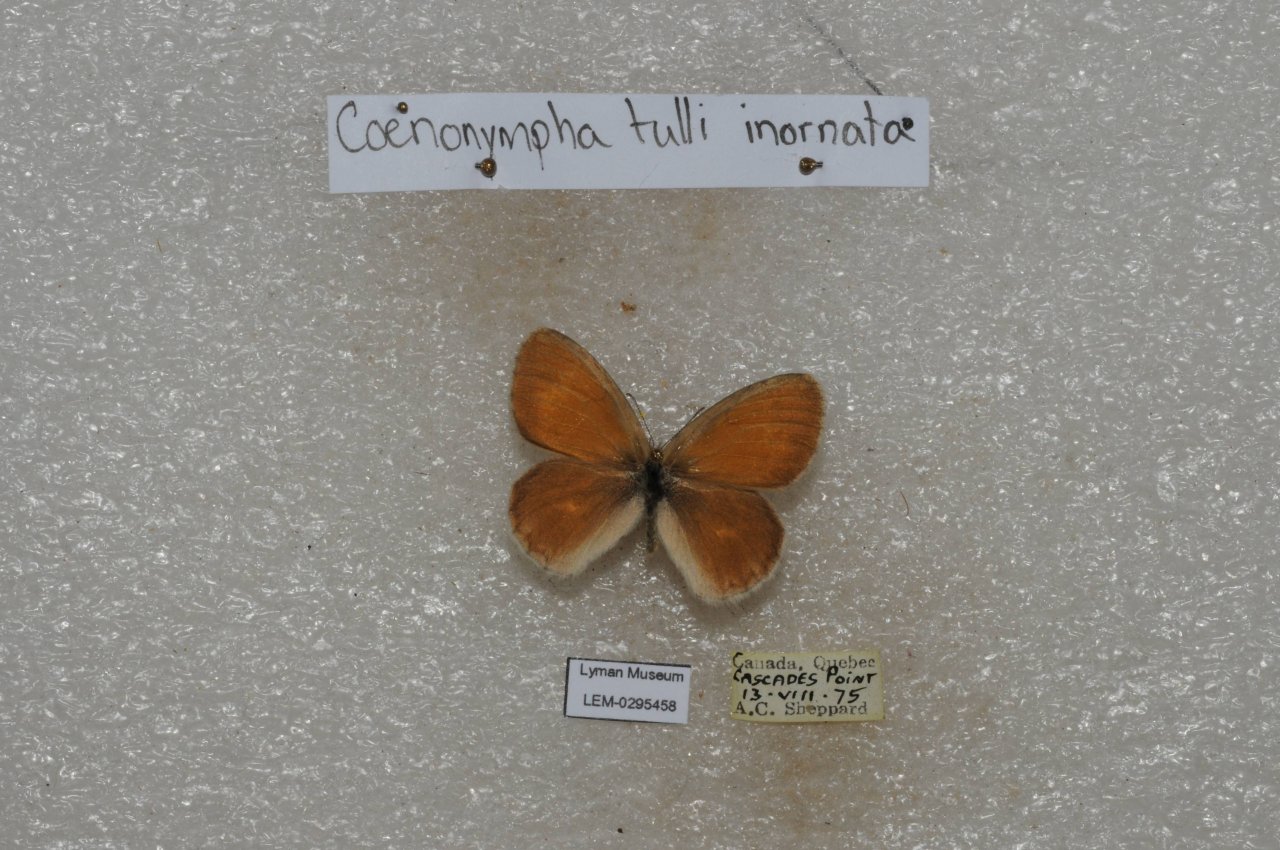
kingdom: Animalia
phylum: Arthropoda
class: Insecta
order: Lepidoptera
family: Nymphalidae
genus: Coenonympha
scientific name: Coenonympha tullia
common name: Large Heath
